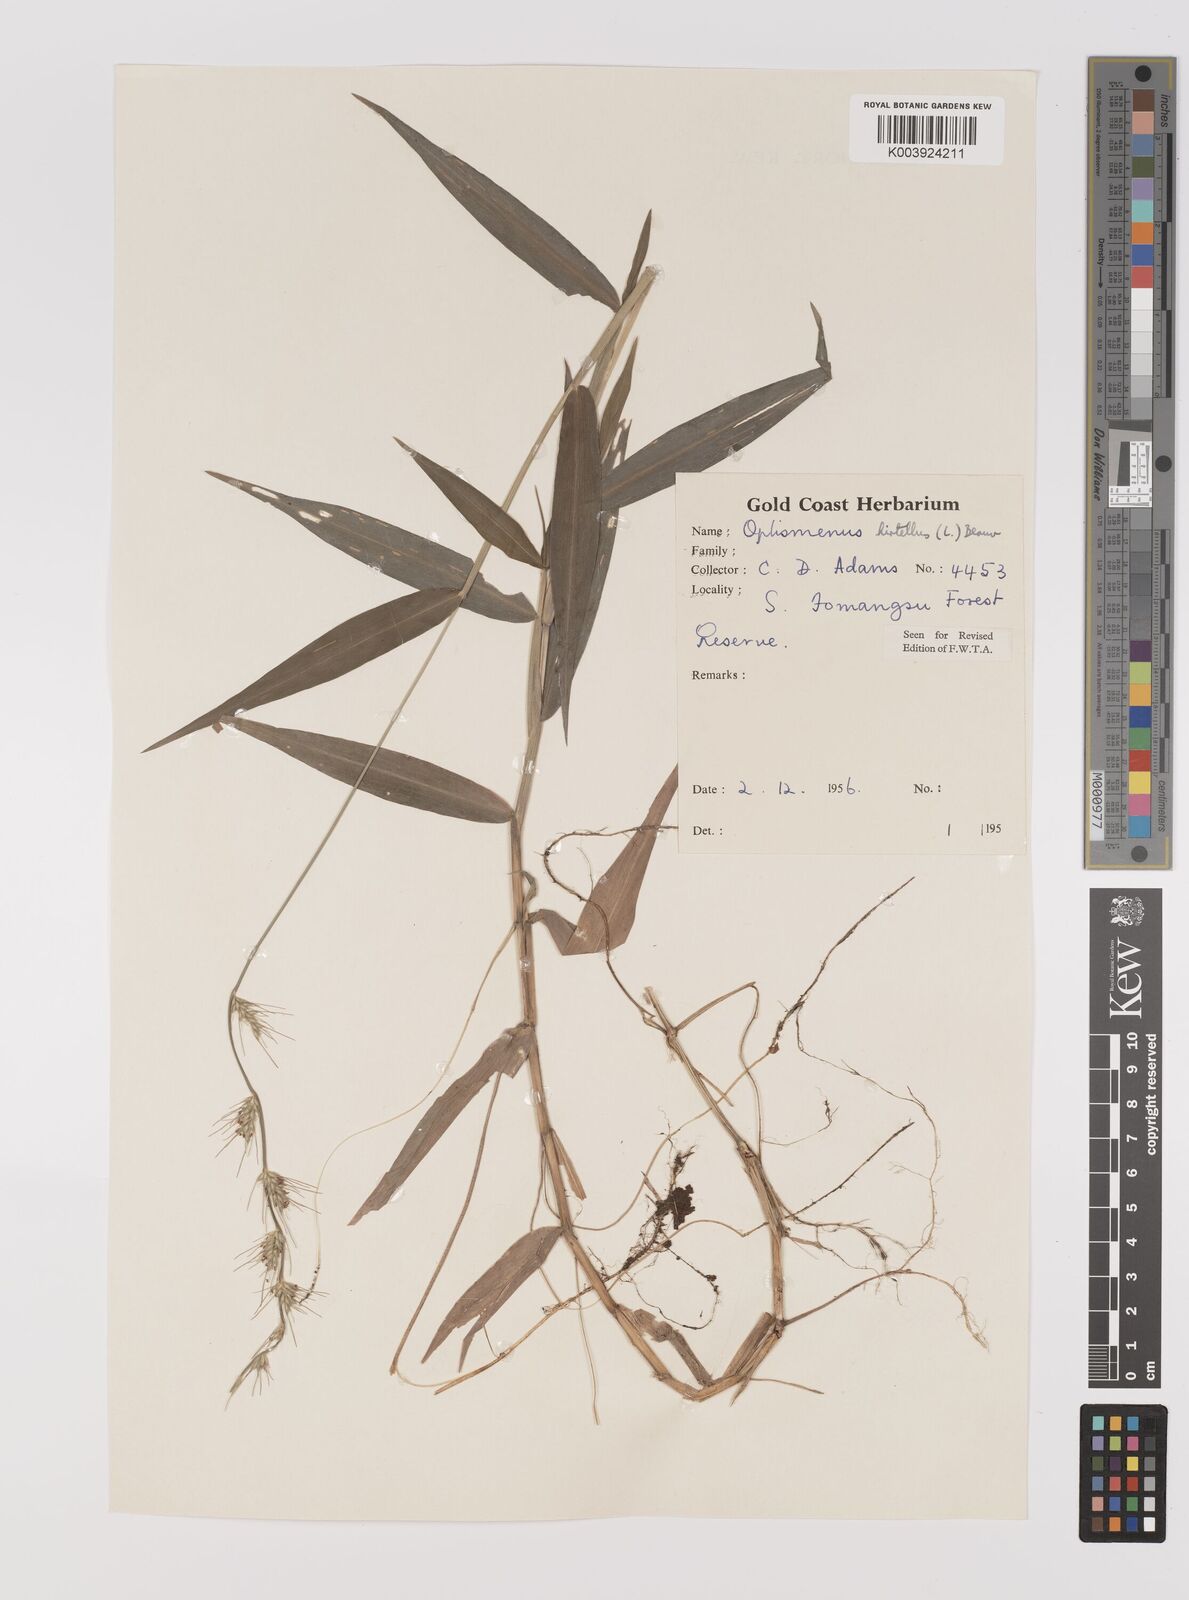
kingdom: Plantae
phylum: Tracheophyta
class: Liliopsida
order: Poales
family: Poaceae
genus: Oplismenus
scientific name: Oplismenus hirtellus
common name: Basketgrass
